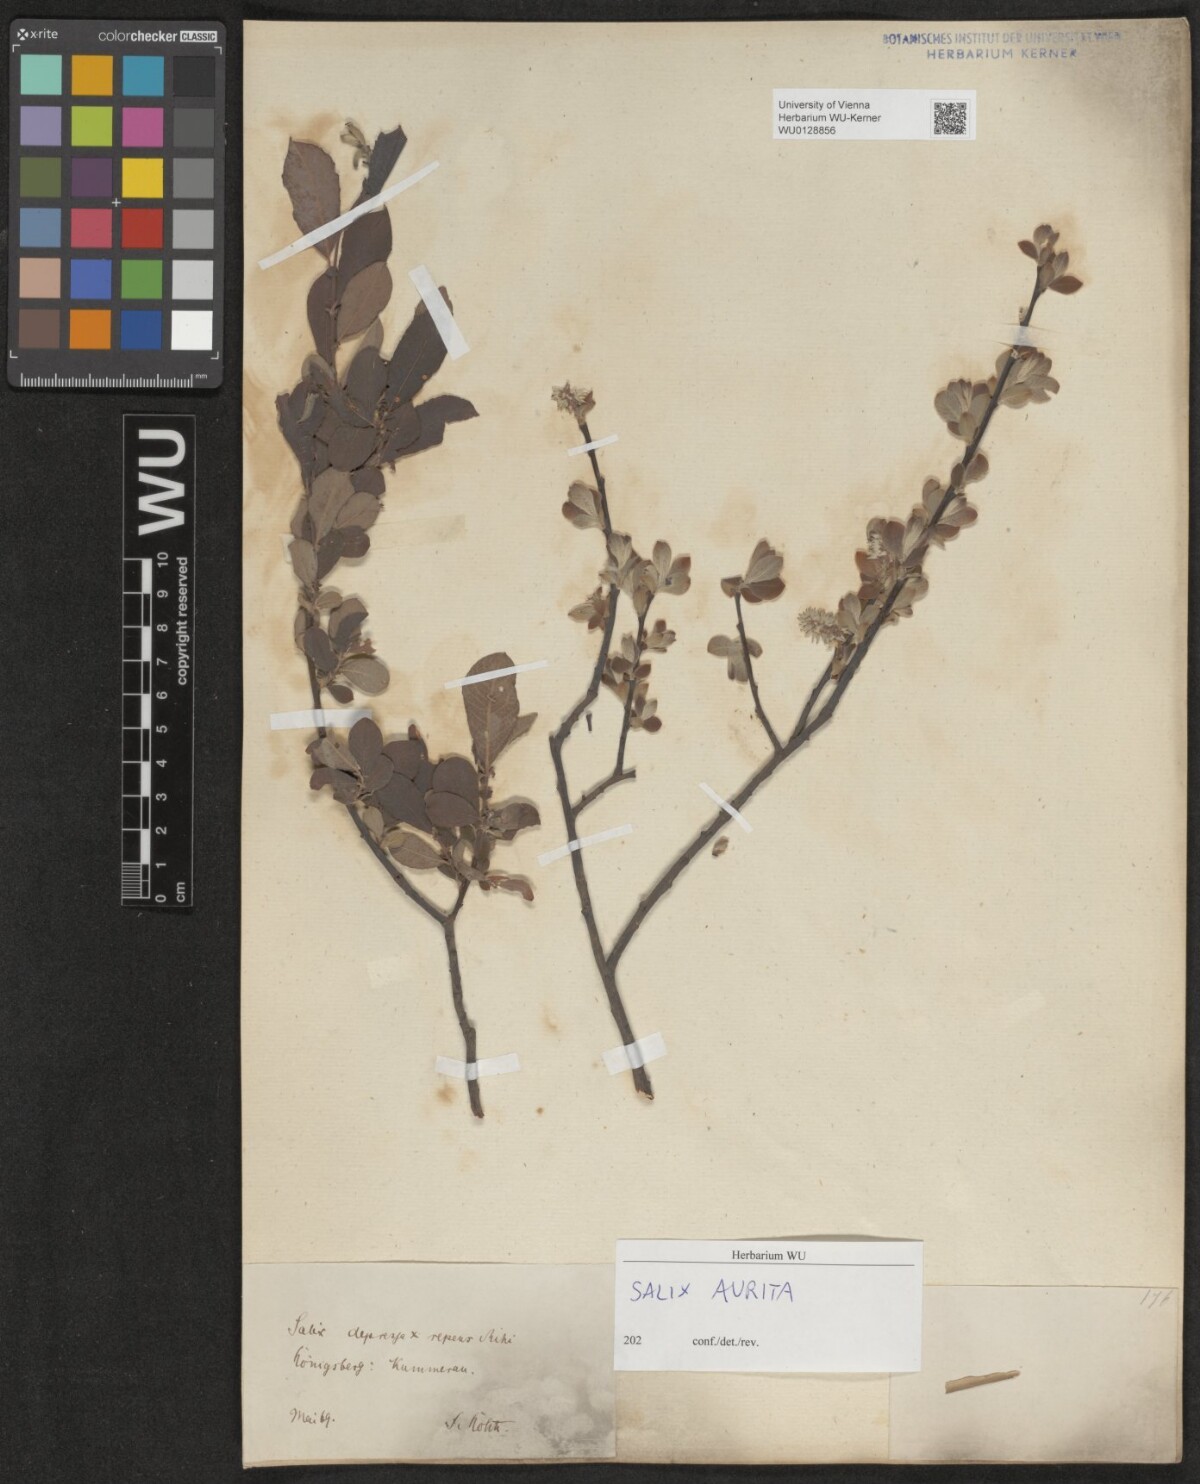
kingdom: Plantae
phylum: Tracheophyta
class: Magnoliopsida
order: Malpighiales
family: Salicaceae
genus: Salix
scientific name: Salix aurita
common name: Eared willow
